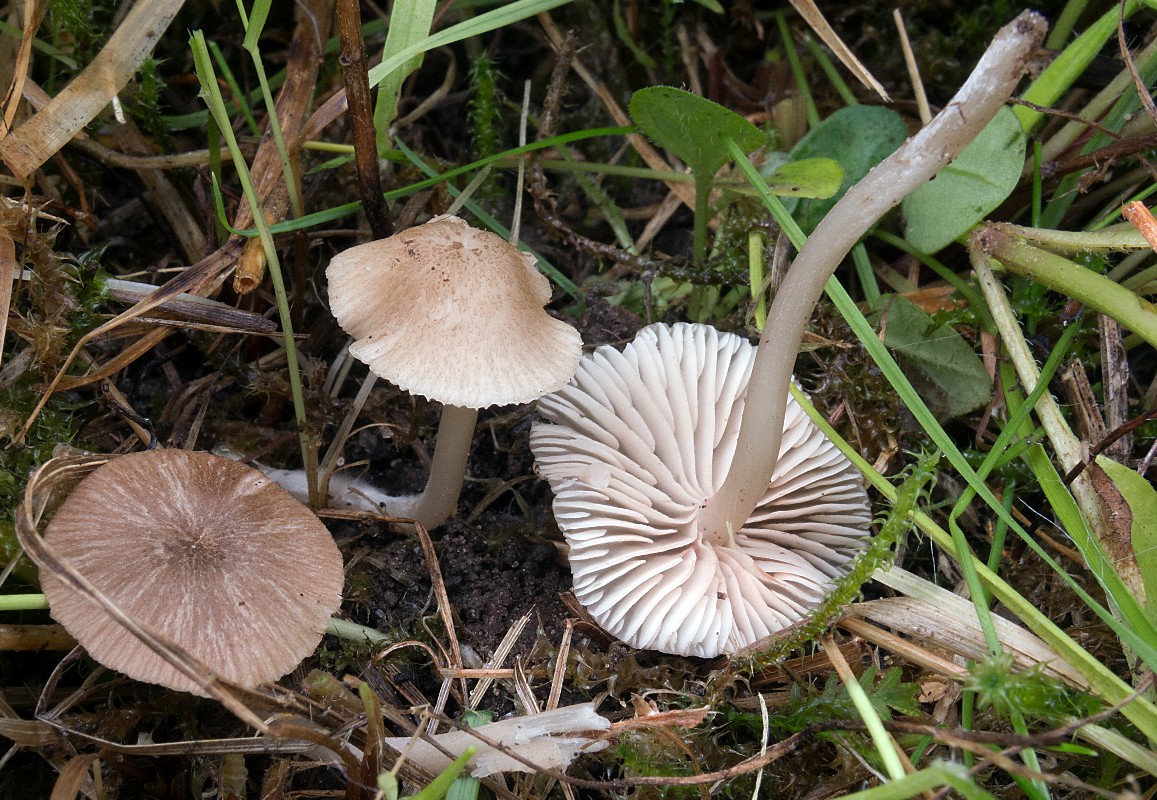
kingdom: Fungi
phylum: Basidiomycota
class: Agaricomycetes
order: Agaricales
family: Entolomataceae
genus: Entoloma
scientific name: Entoloma ochromicaceum
